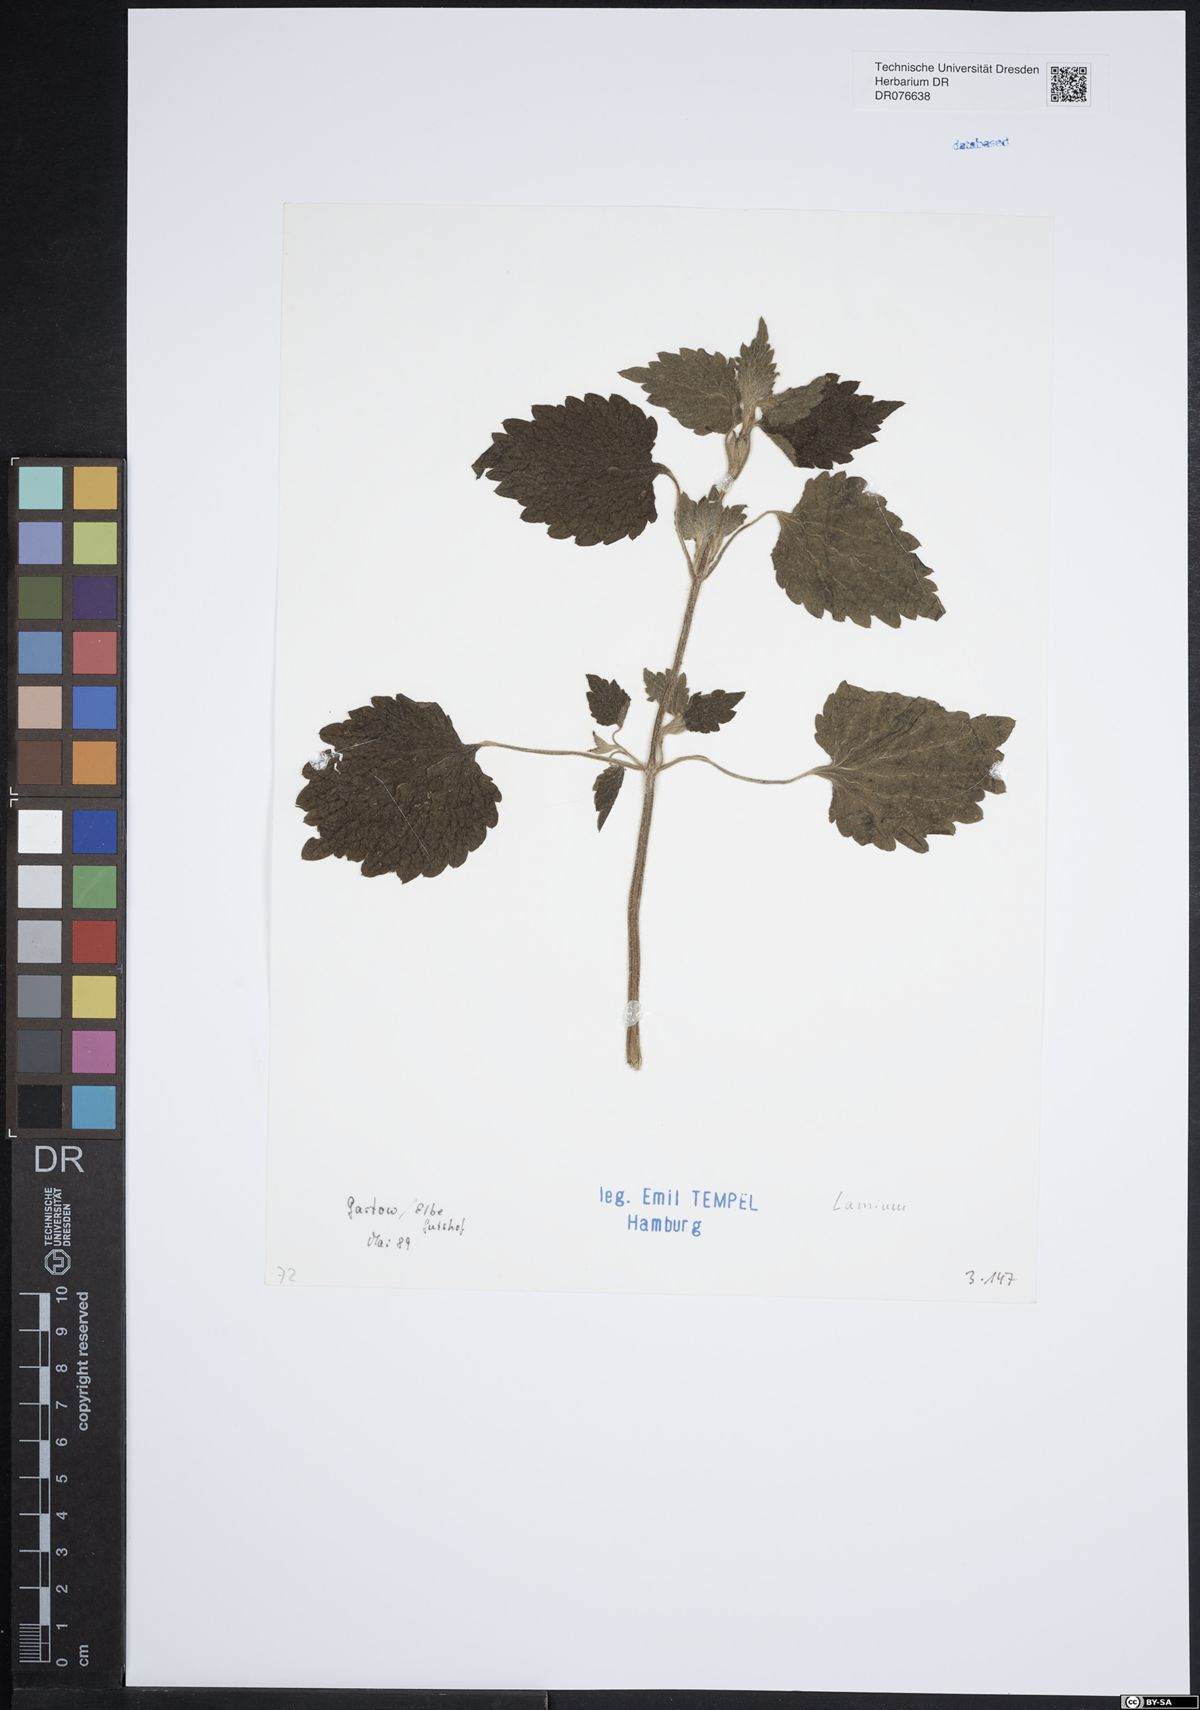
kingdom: Plantae
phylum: Tracheophyta
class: Magnoliopsida
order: Lamiales
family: Lamiaceae
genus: Lamium
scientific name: Lamium
